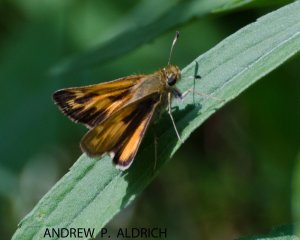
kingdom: Animalia
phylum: Arthropoda
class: Insecta
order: Lepidoptera
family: Hesperiidae
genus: Hesperia
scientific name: Hesperia sassacus
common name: Sassacus Skipper
